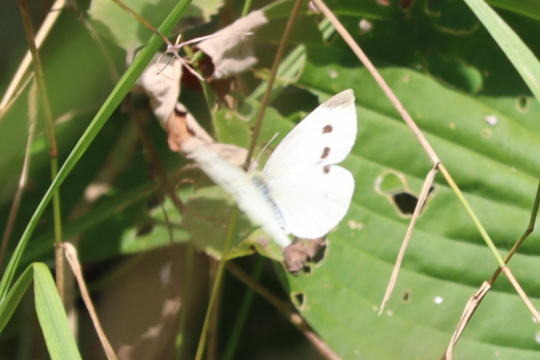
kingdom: Animalia
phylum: Arthropoda
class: Insecta
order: Lepidoptera
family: Pieridae
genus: Pieris
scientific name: Pieris rapae
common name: Cabbage White
